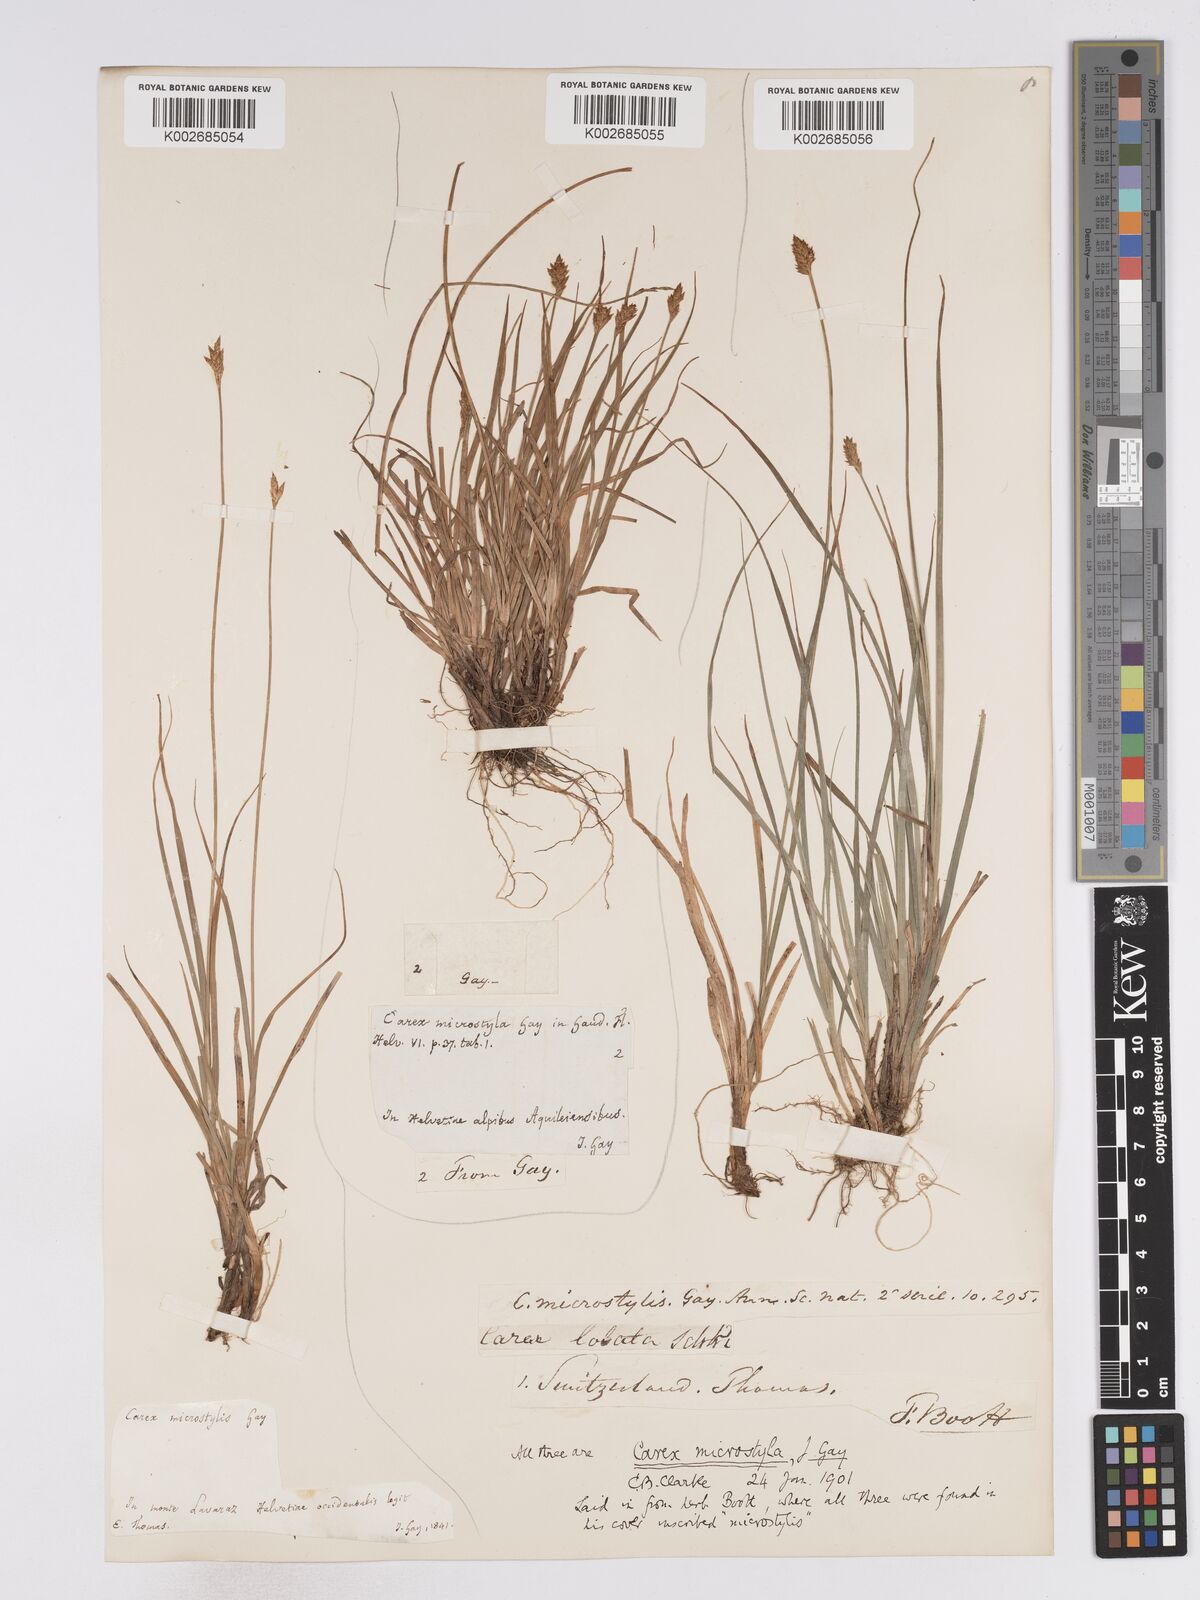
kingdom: Plantae
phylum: Tracheophyta
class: Liliopsida
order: Poales
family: Cyperaceae
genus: Carex
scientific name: Carex microstyla
